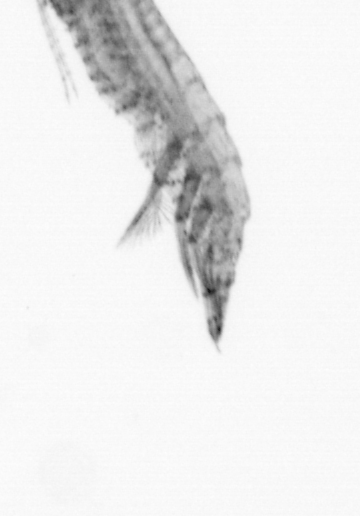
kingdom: Animalia
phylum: Arthropoda
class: Copepoda
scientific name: Copepoda
